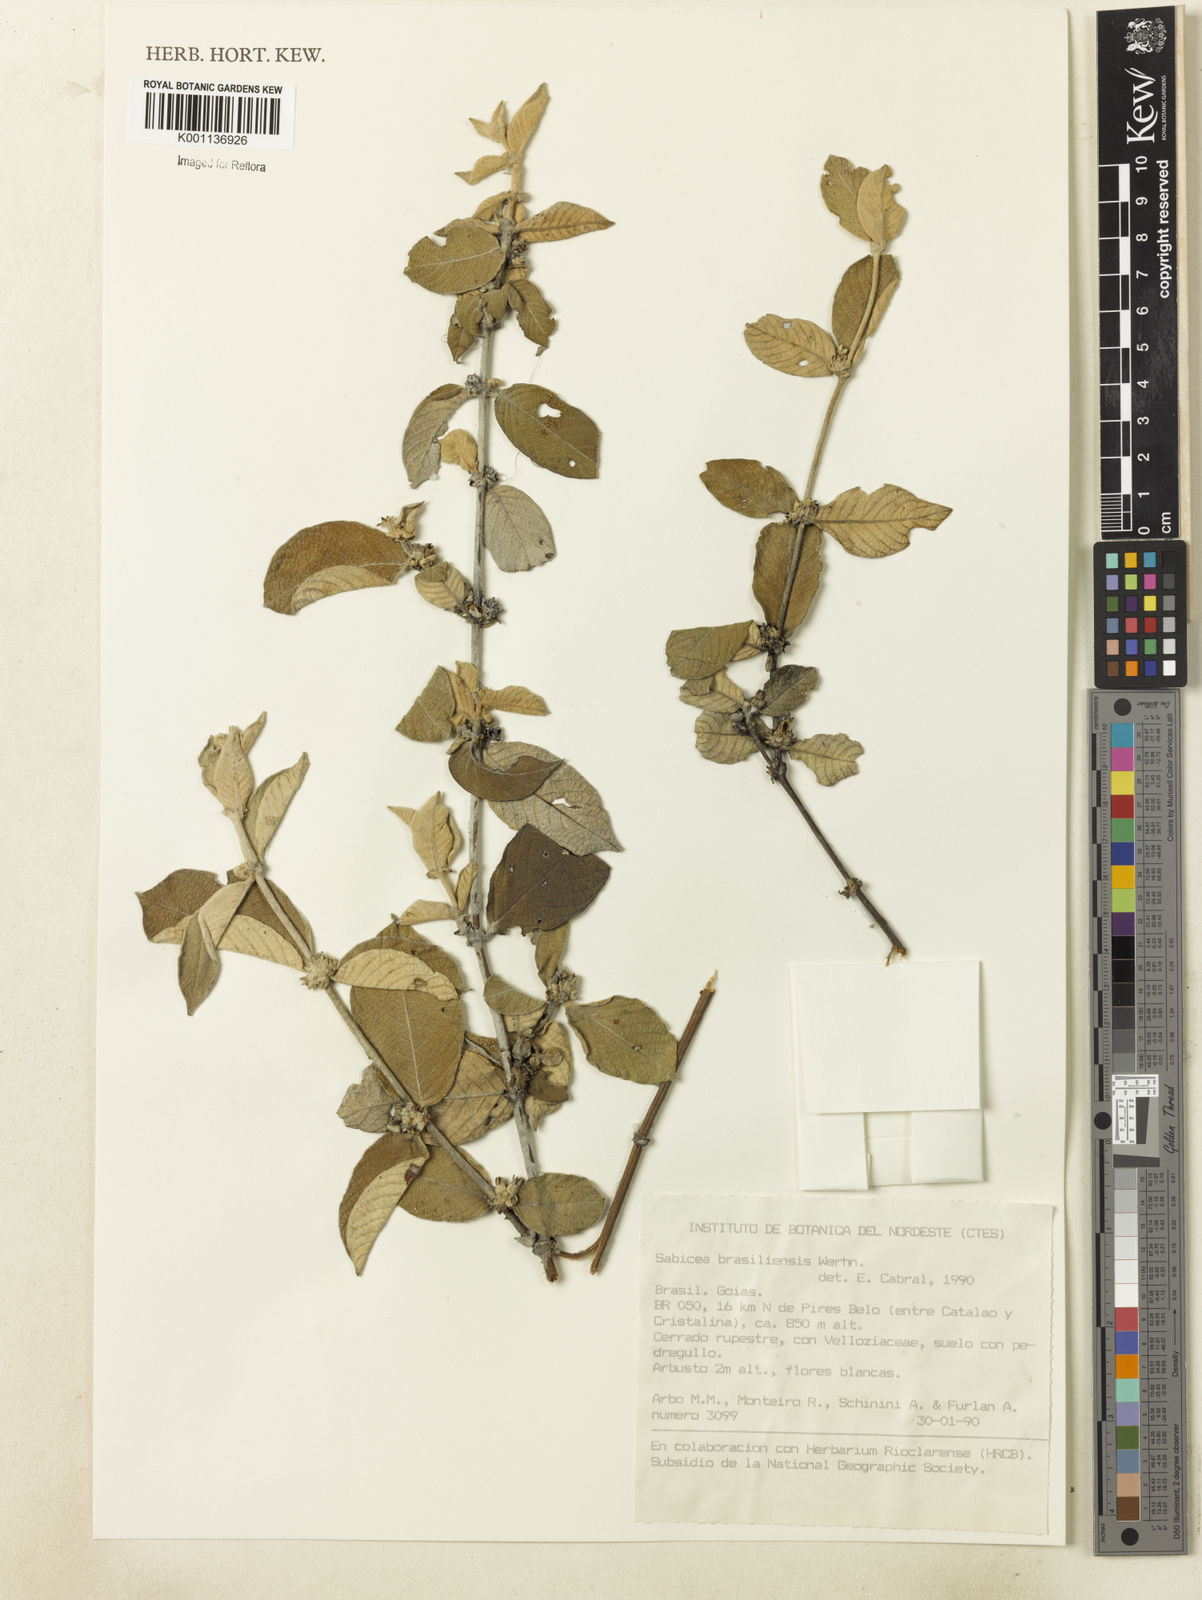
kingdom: Plantae
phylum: Tracheophyta
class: Magnoliopsida
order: Gentianales
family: Rubiaceae
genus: Sabicea
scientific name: Sabicea brasiliensis
